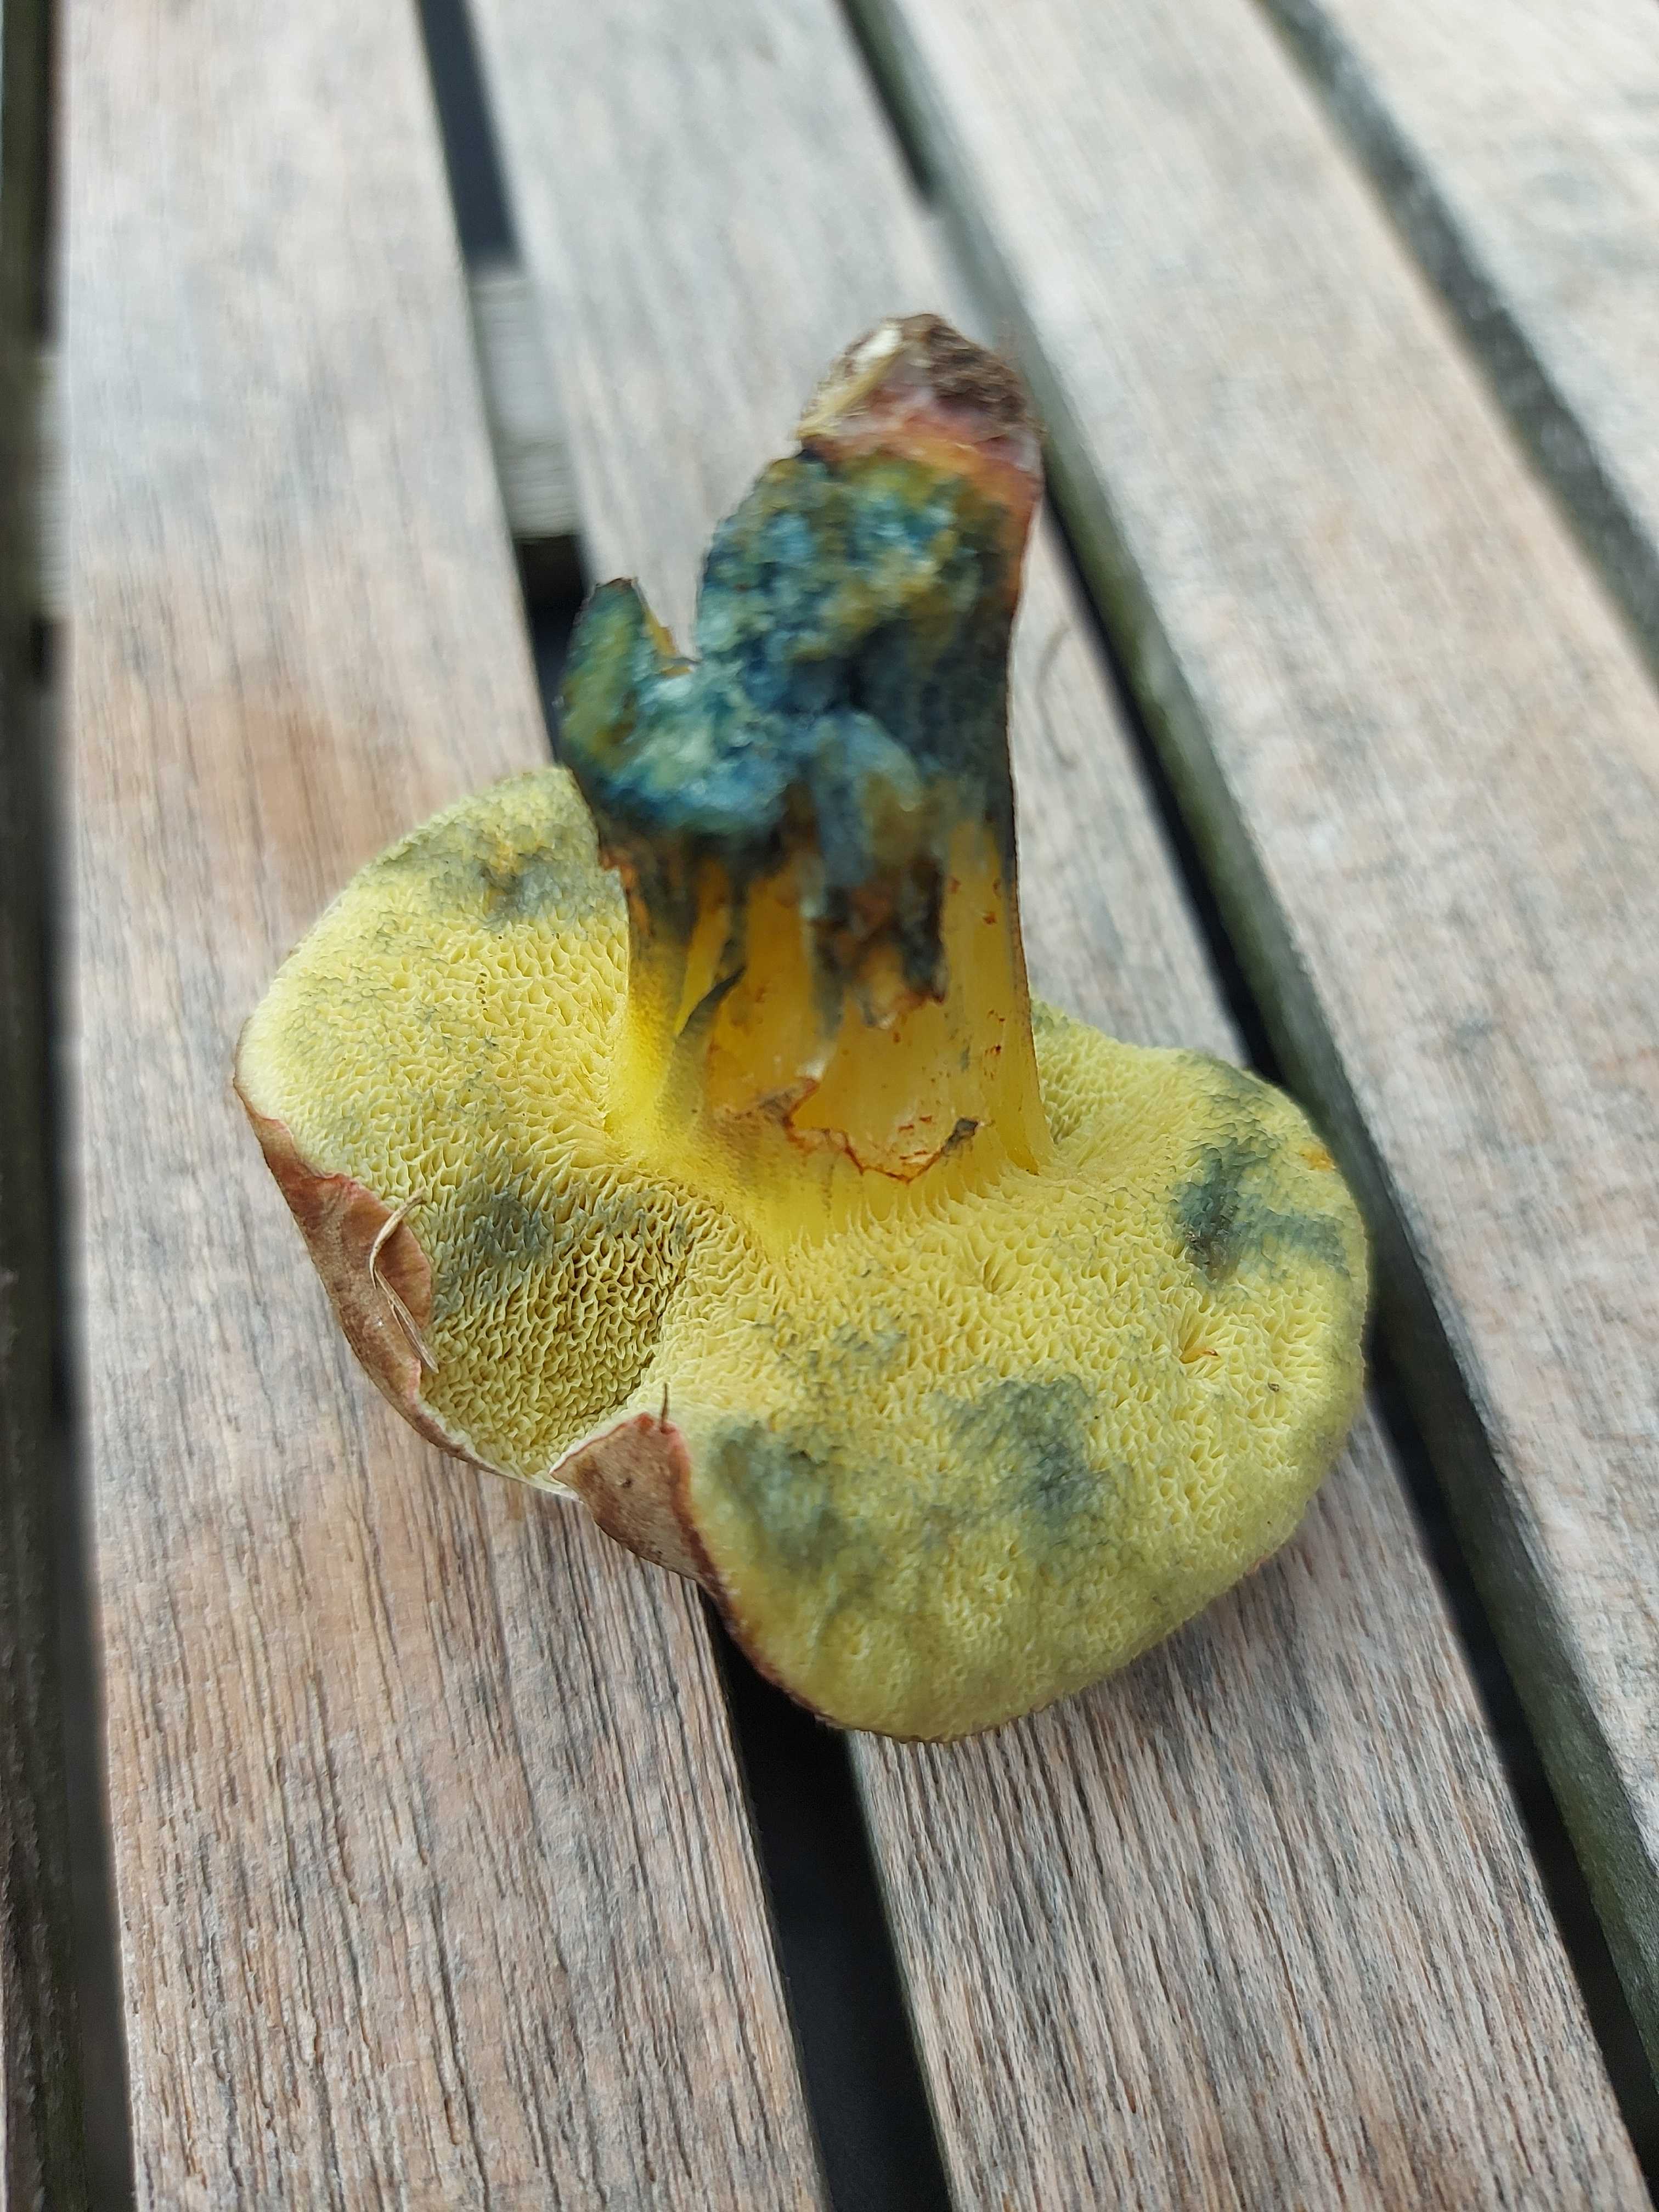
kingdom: Fungi
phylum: Basidiomycota
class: Agaricomycetes
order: Boletales
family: Boletaceae
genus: Xerocomellus
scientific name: Xerocomellus cisalpinus
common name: finsprukken rørhat
